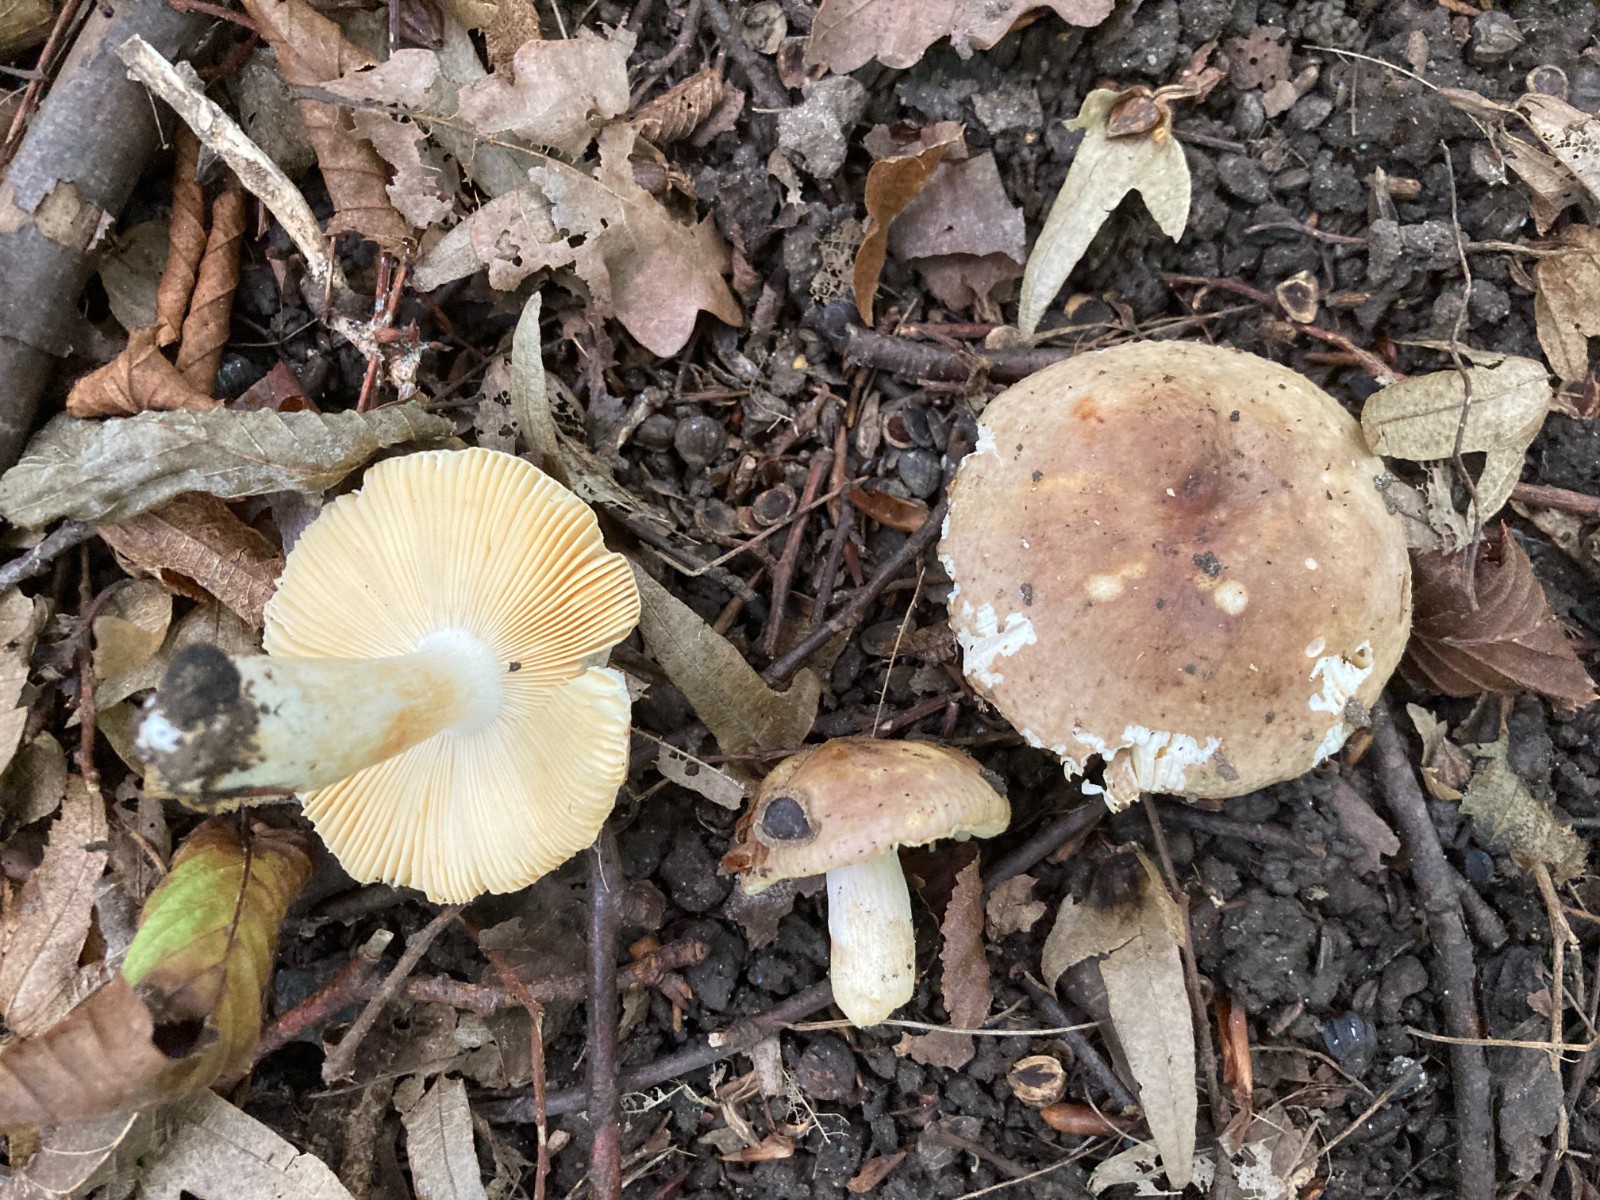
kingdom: Fungi
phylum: Basidiomycota
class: Agaricomycetes
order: Russulales
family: Russulaceae
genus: Russula
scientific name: Russula carpini
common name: avnbøg-skørhat
